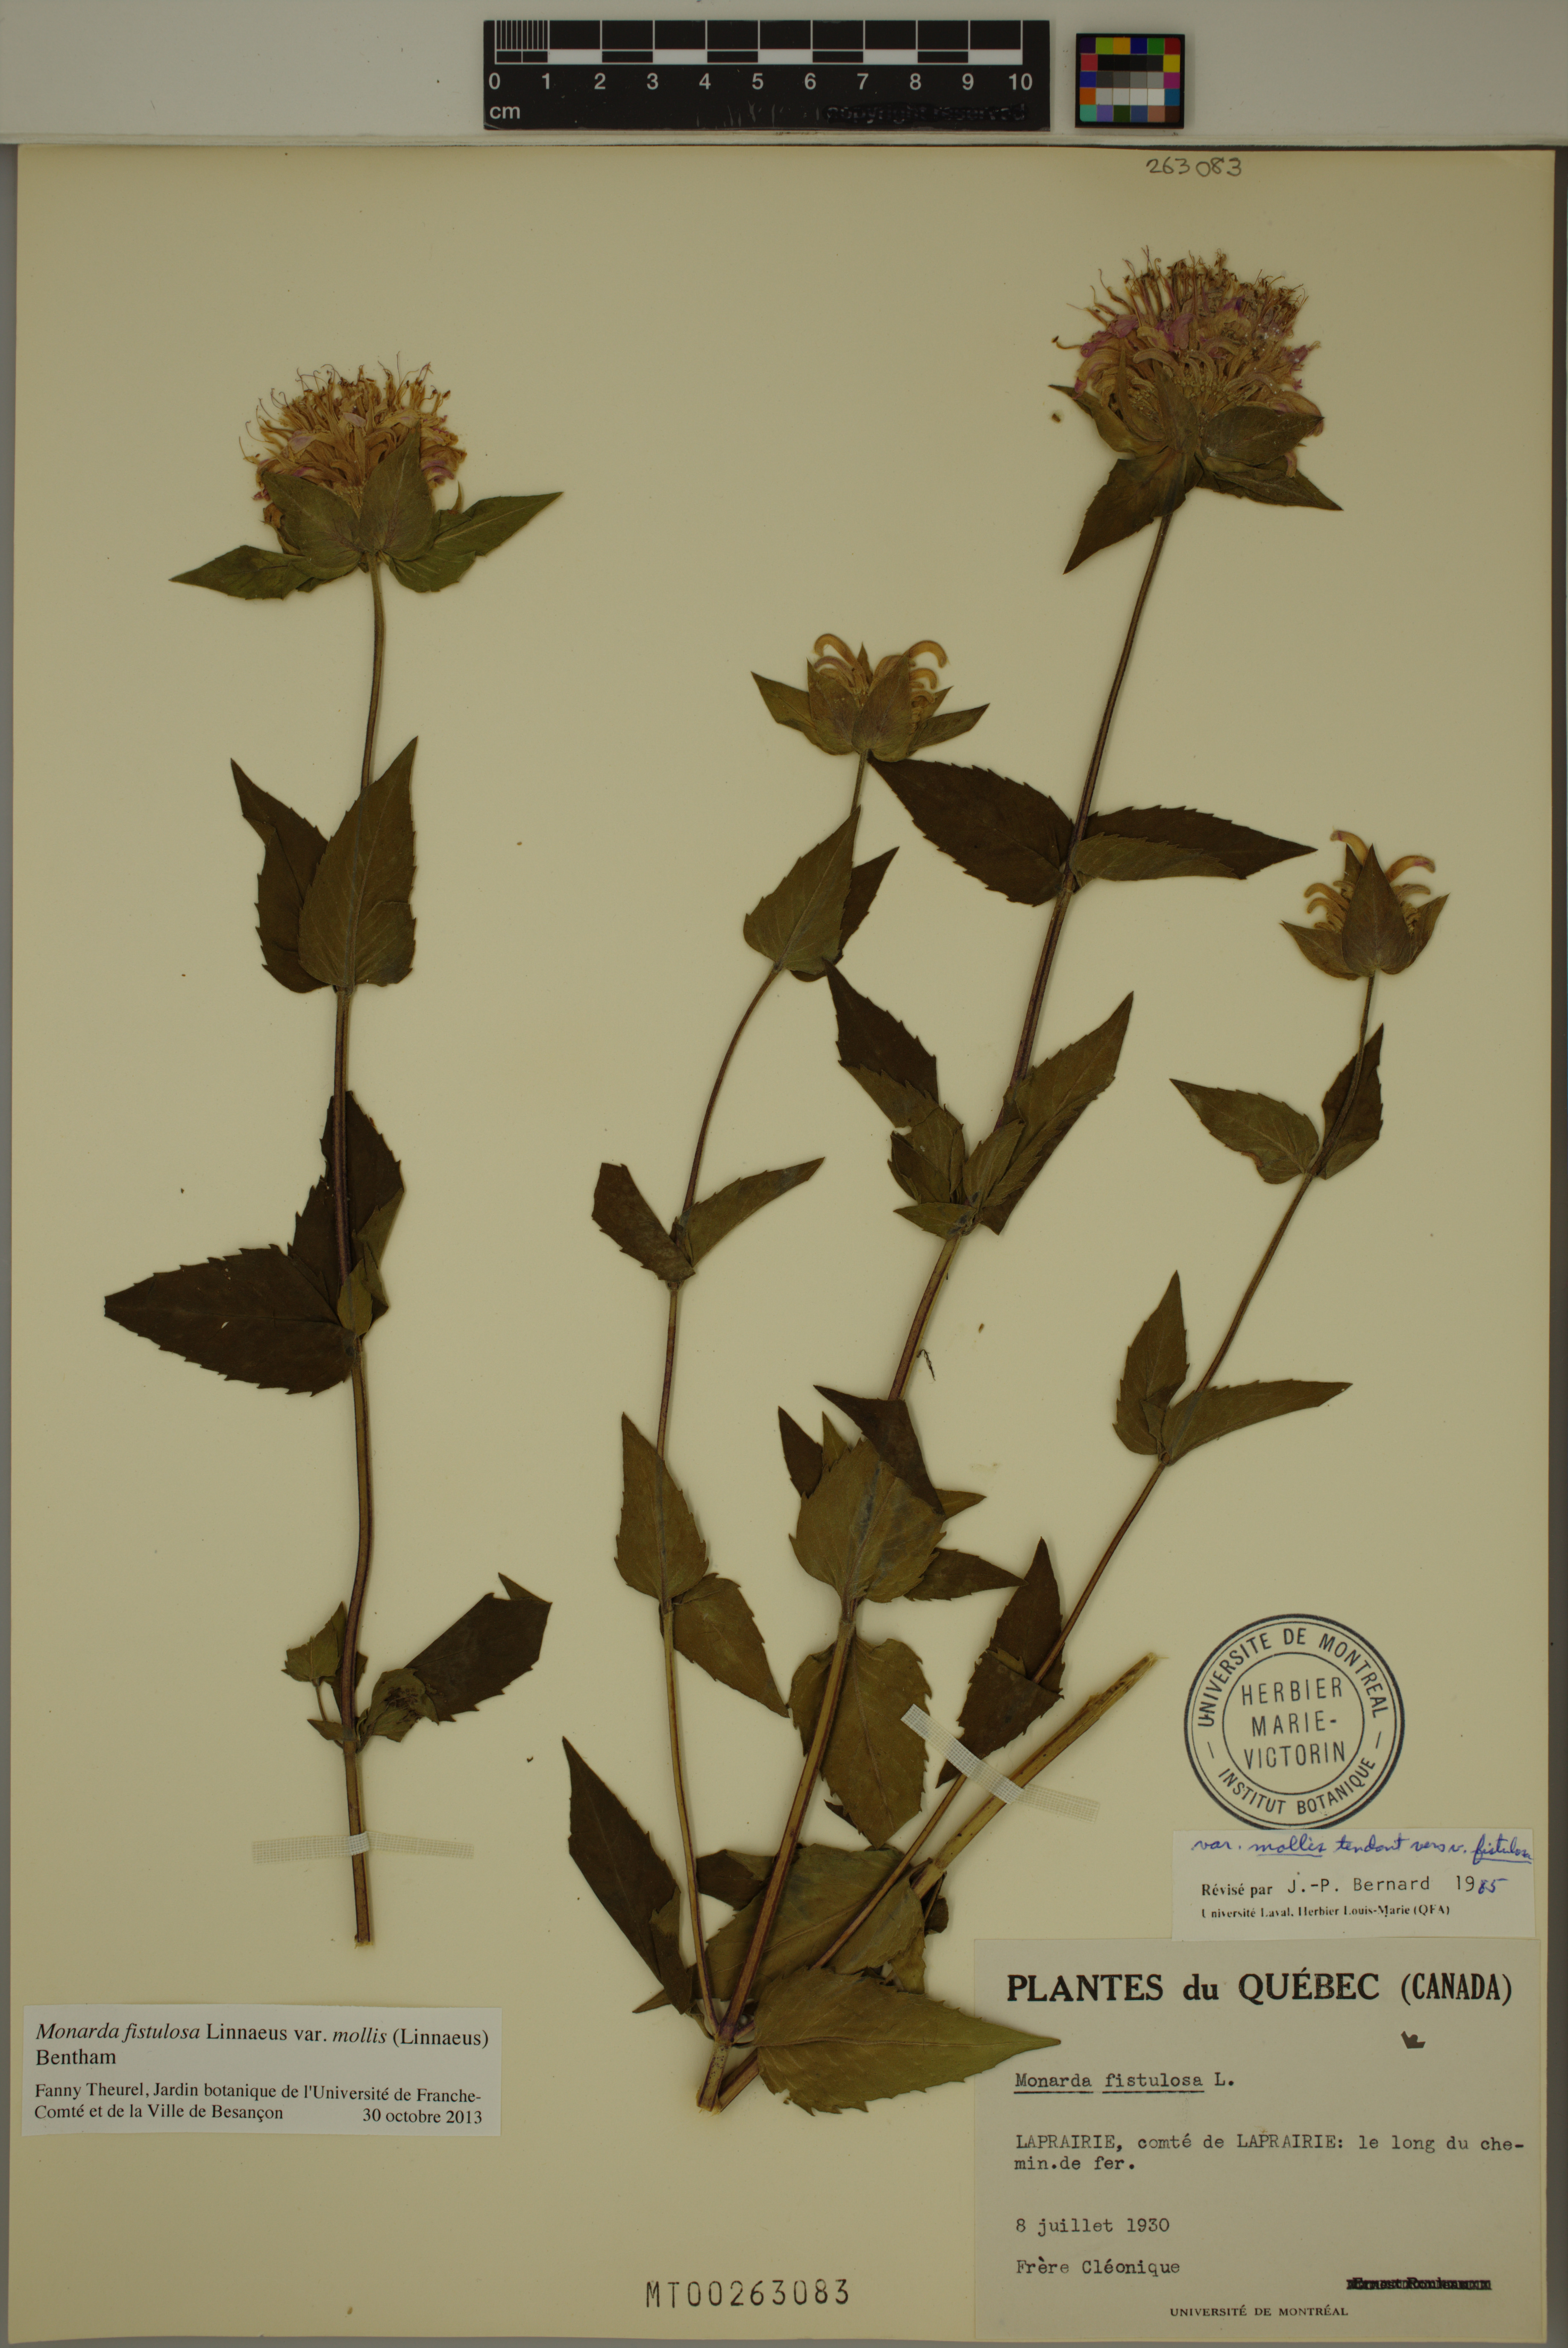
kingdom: Plantae
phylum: Tracheophyta
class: Magnoliopsida
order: Lamiales
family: Lamiaceae
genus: Monarda
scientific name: Monarda fistulosa
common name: Purple beebalm
